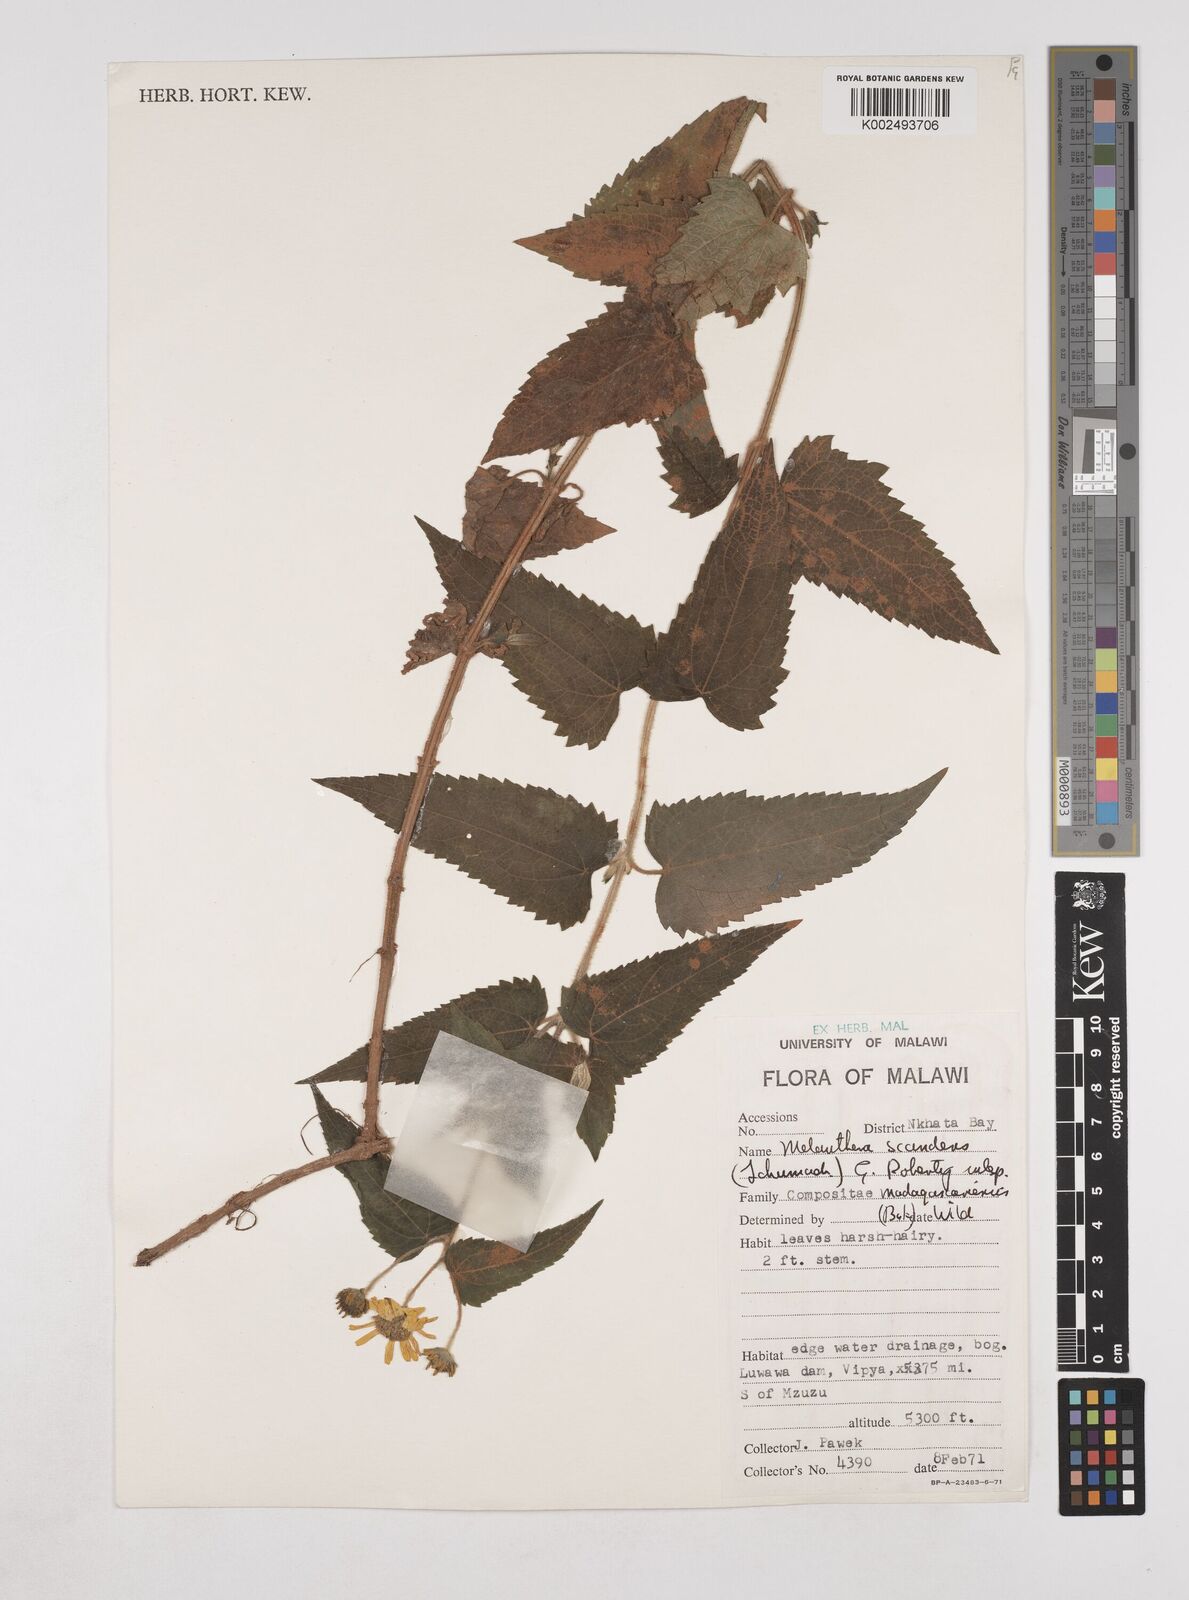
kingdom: Plantae
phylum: Tracheophyta
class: Magnoliopsida
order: Asterales
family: Asteraceae
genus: Lipotriche
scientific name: Lipotriche scandens
